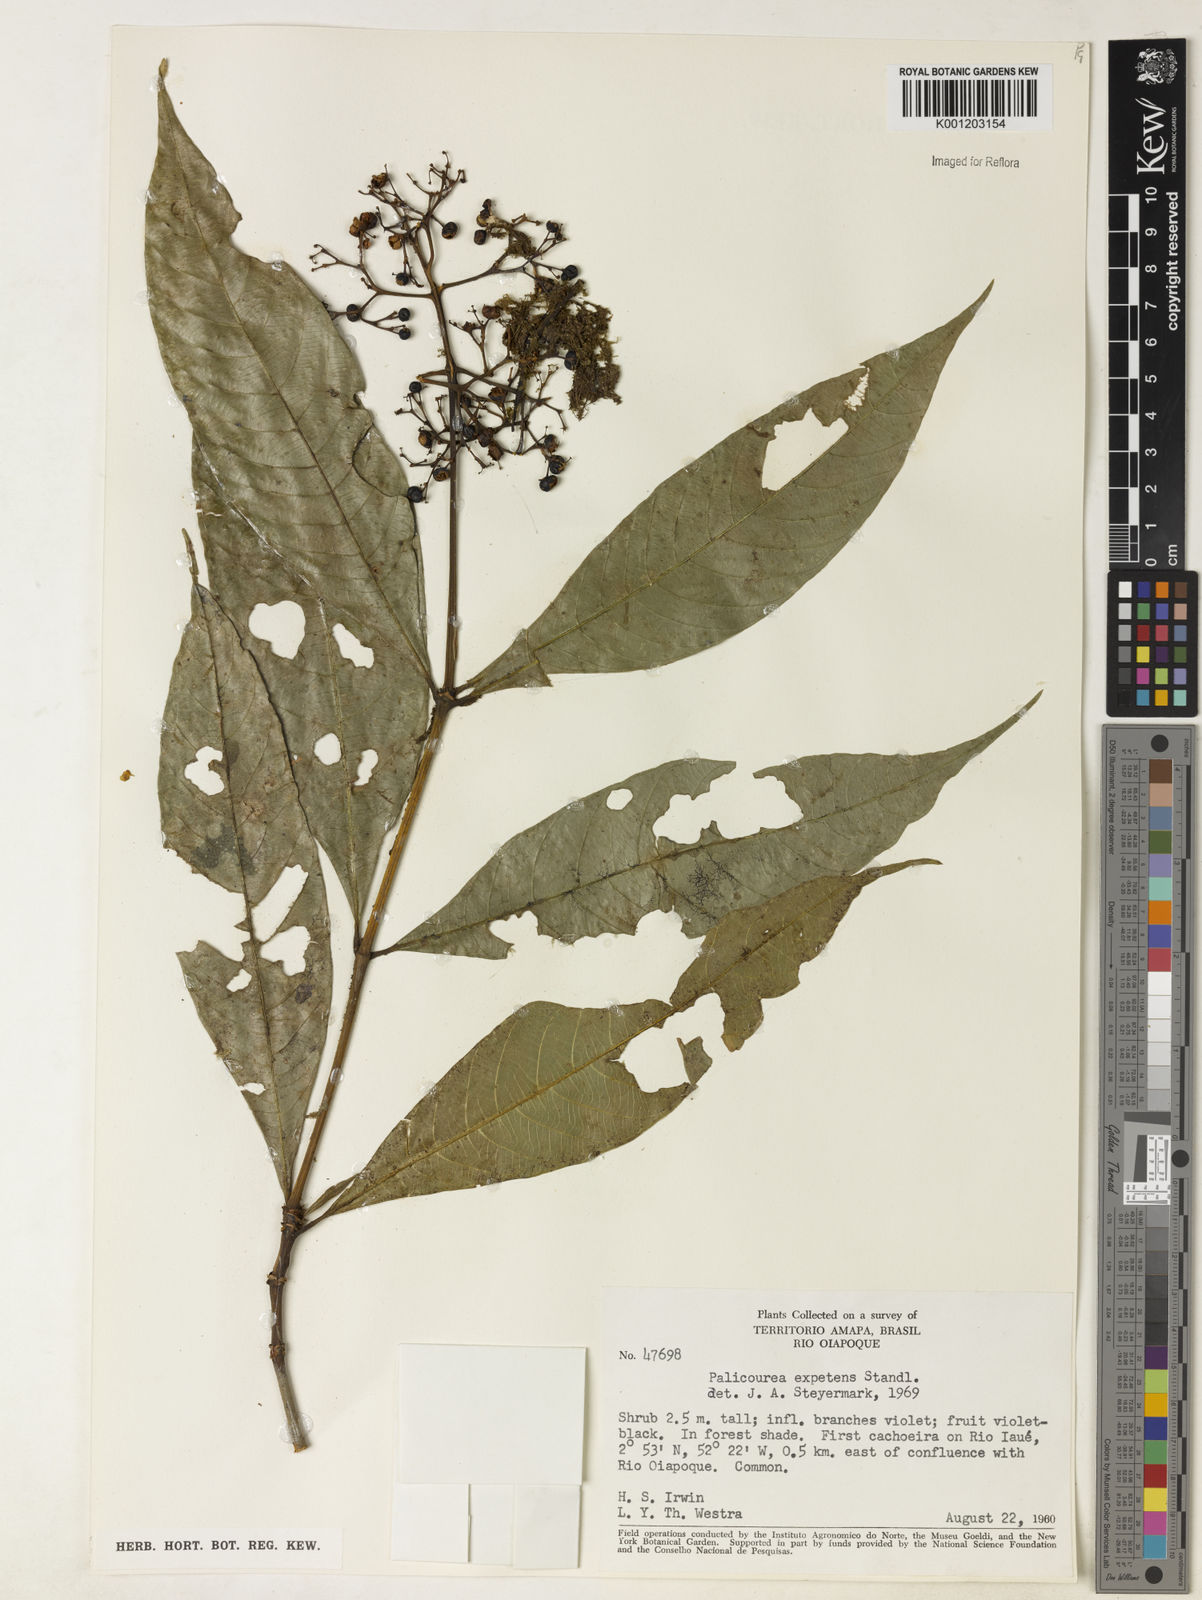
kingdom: Plantae
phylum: Tracheophyta
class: Magnoliopsida
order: Gentianales
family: Rubiaceae
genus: Palicourea
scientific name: Palicourea corymbifera
